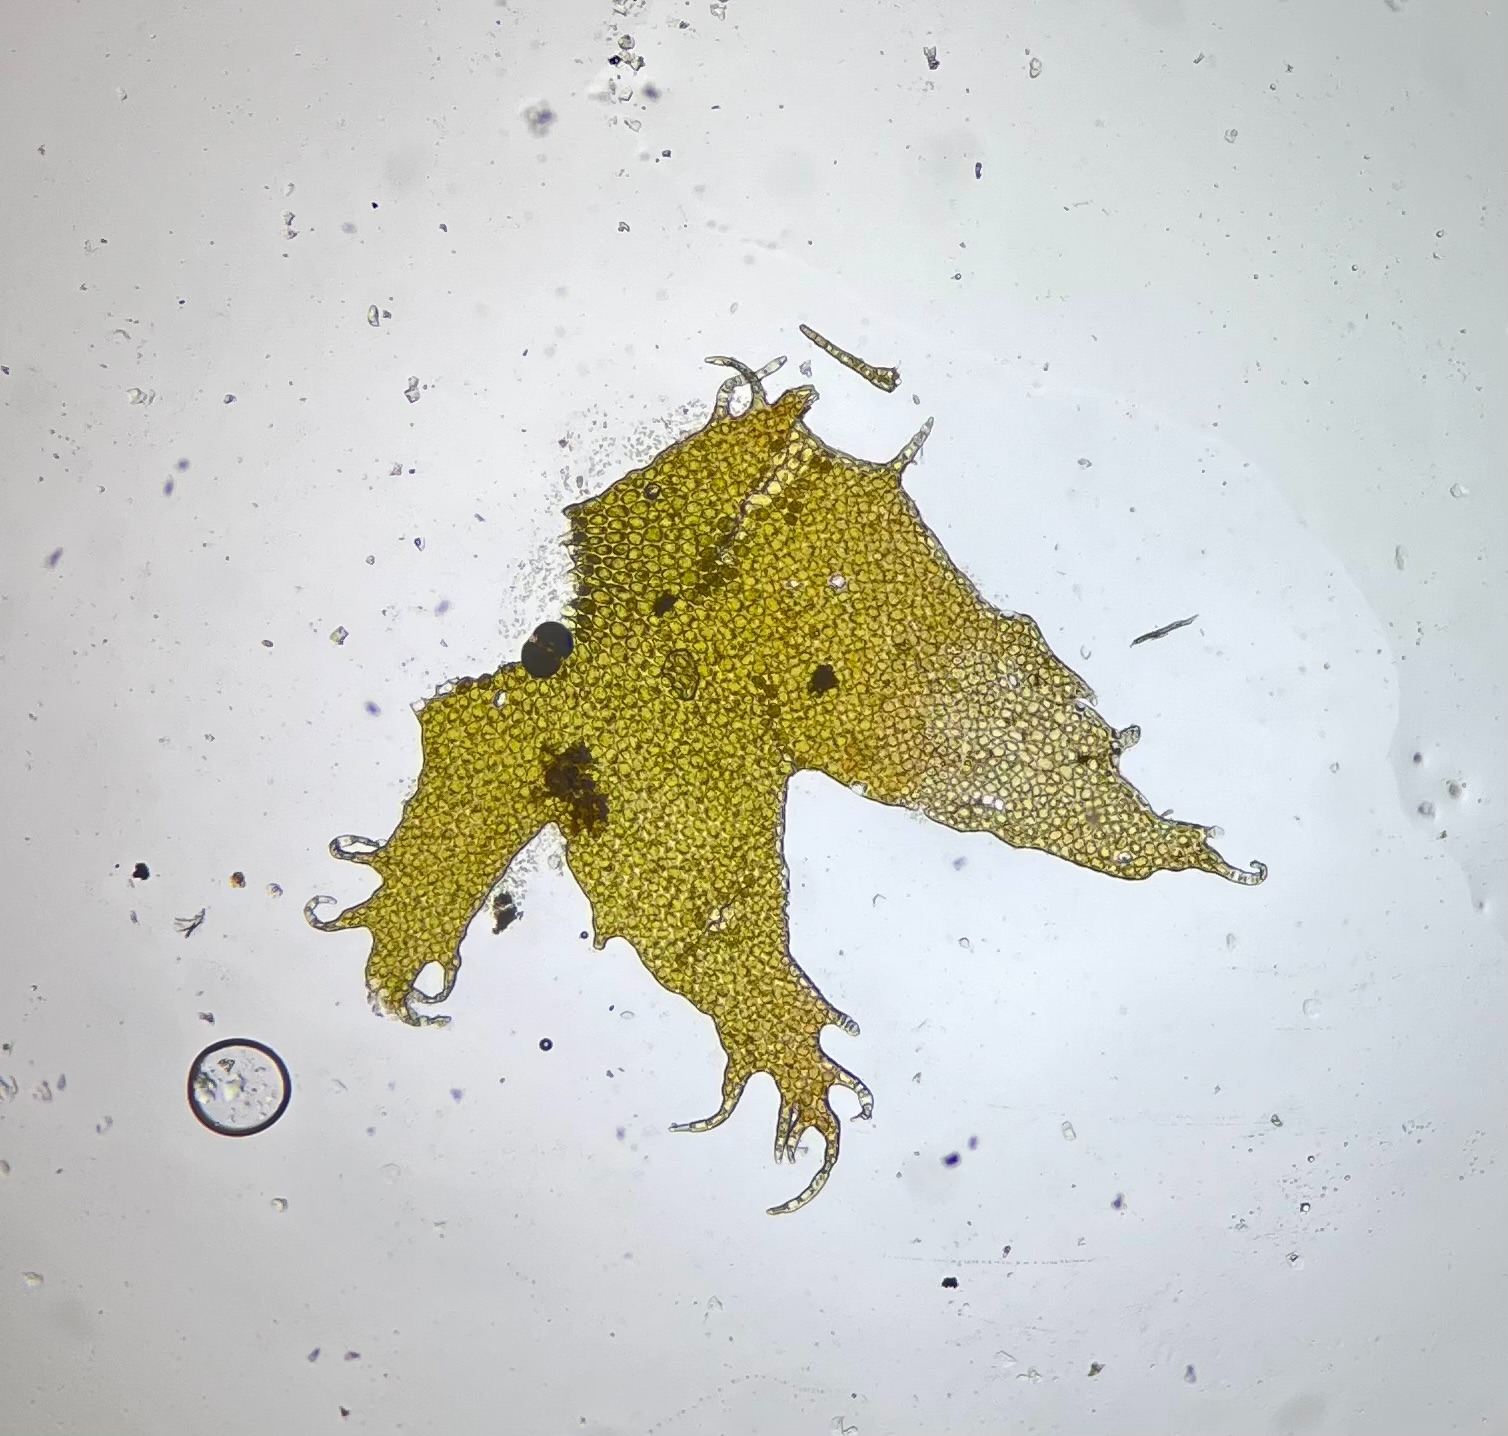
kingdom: Plantae
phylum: Marchantiophyta
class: Jungermanniopsida
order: Ptilidiales
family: Ptilidiaceae
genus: Ptilidium
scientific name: Ptilidium ciliare
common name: Almindelig frynsemos
